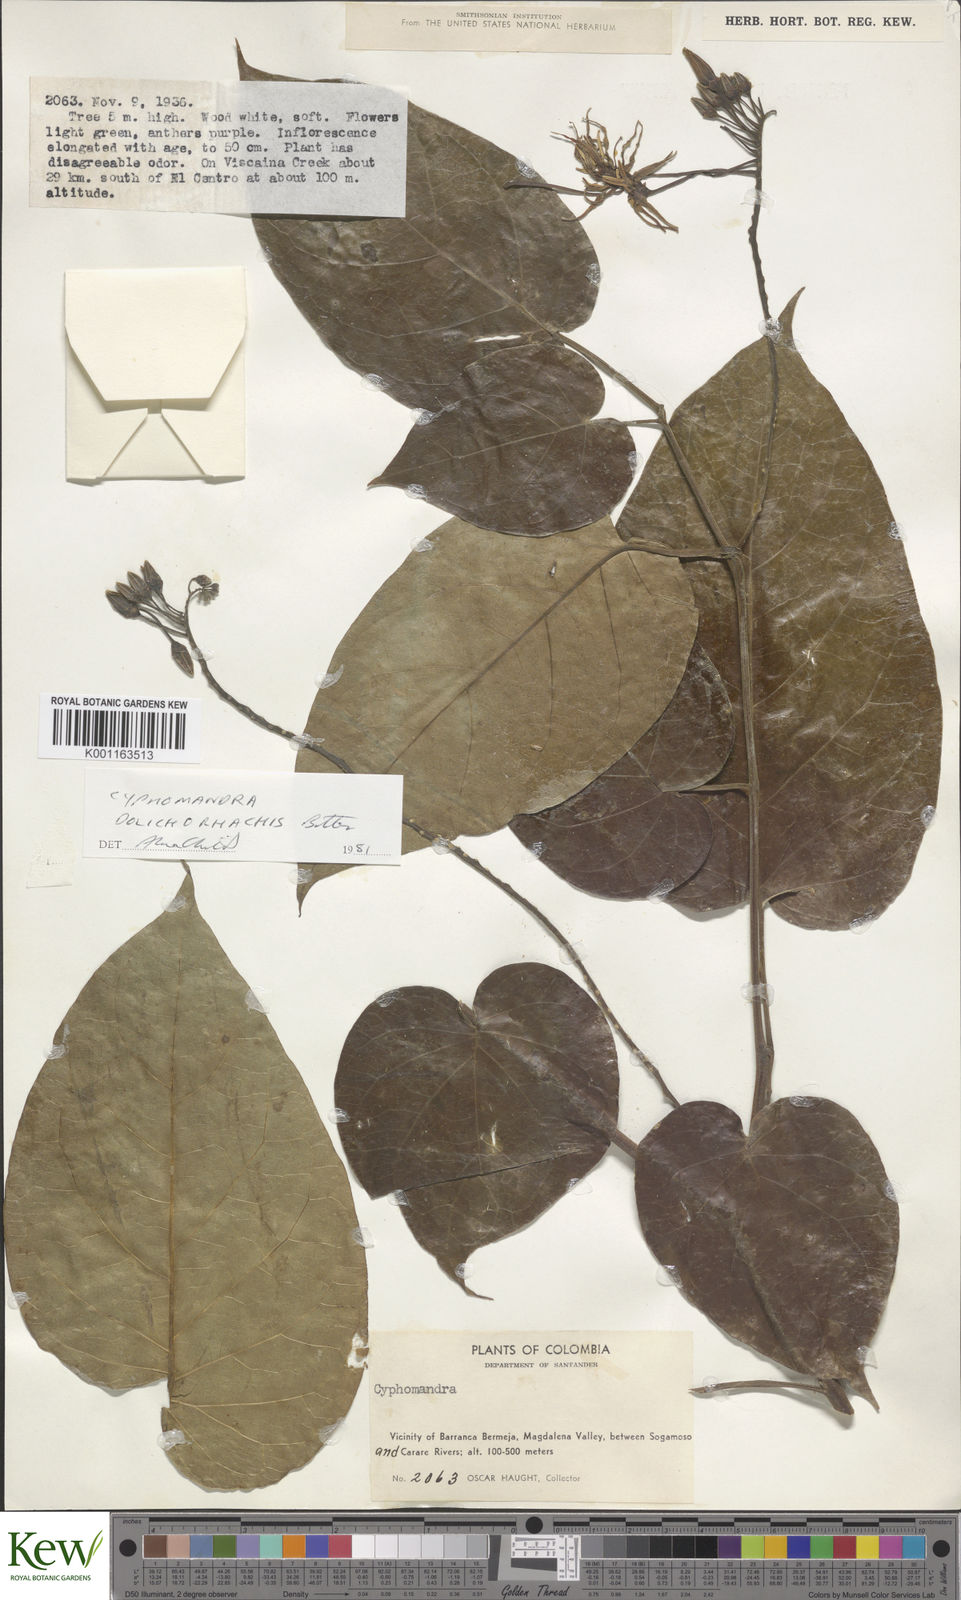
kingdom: Plantae
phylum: Tracheophyta
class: Magnoliopsida
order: Solanales
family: Solanaceae
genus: Solanum
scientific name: Solanum splendens
